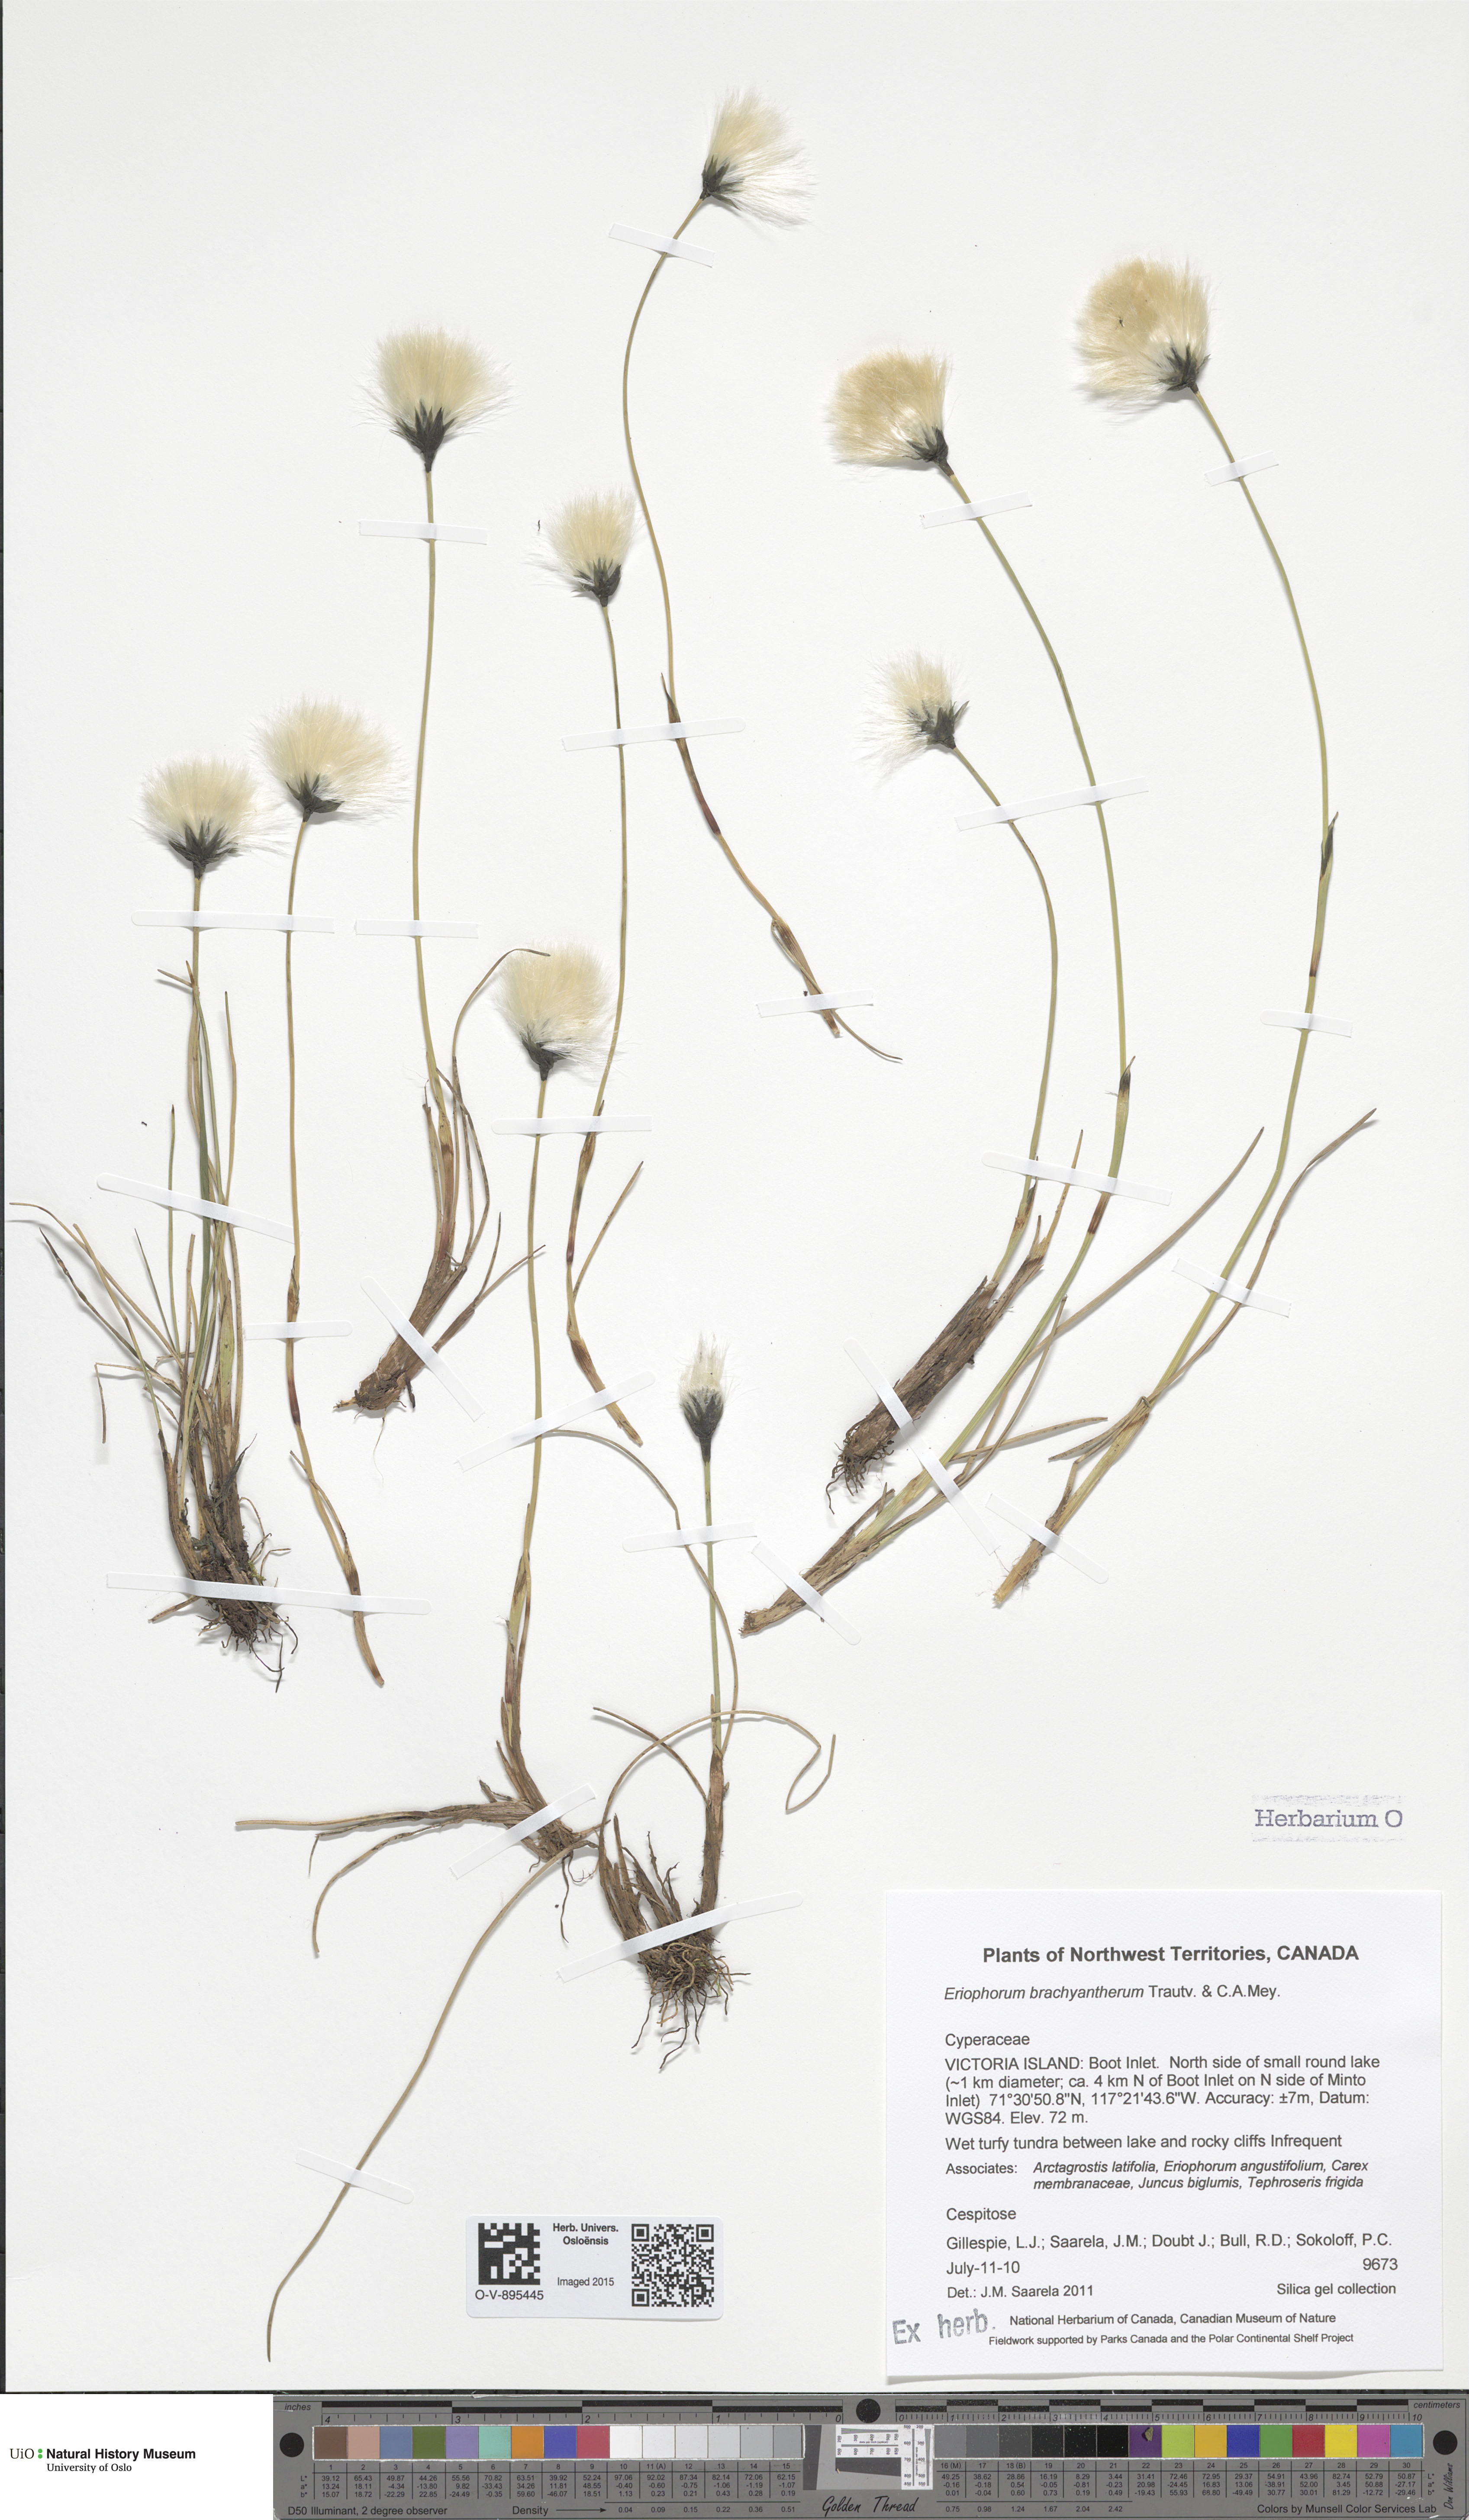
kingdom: Plantae
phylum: Tracheophyta
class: Liliopsida
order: Poales
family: Cyperaceae
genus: Eriophorum
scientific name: Eriophorum brachyantherum
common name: Closed-sheathed cottongrass
